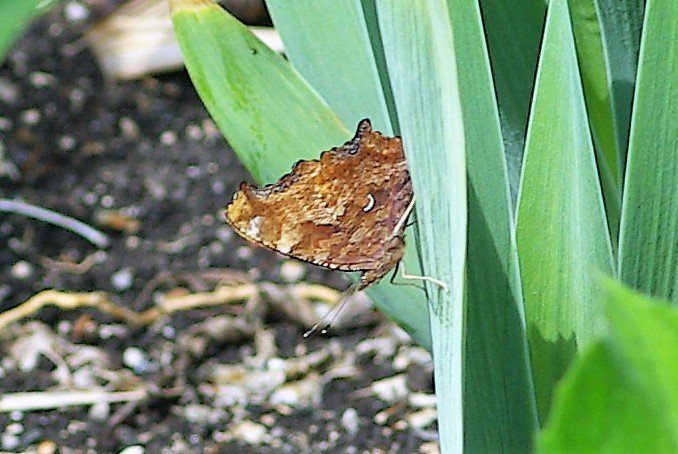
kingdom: Animalia
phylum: Arthropoda
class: Insecta
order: Lepidoptera
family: Nymphalidae
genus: Polygonia
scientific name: Polygonia comma
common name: Eastern Comma
